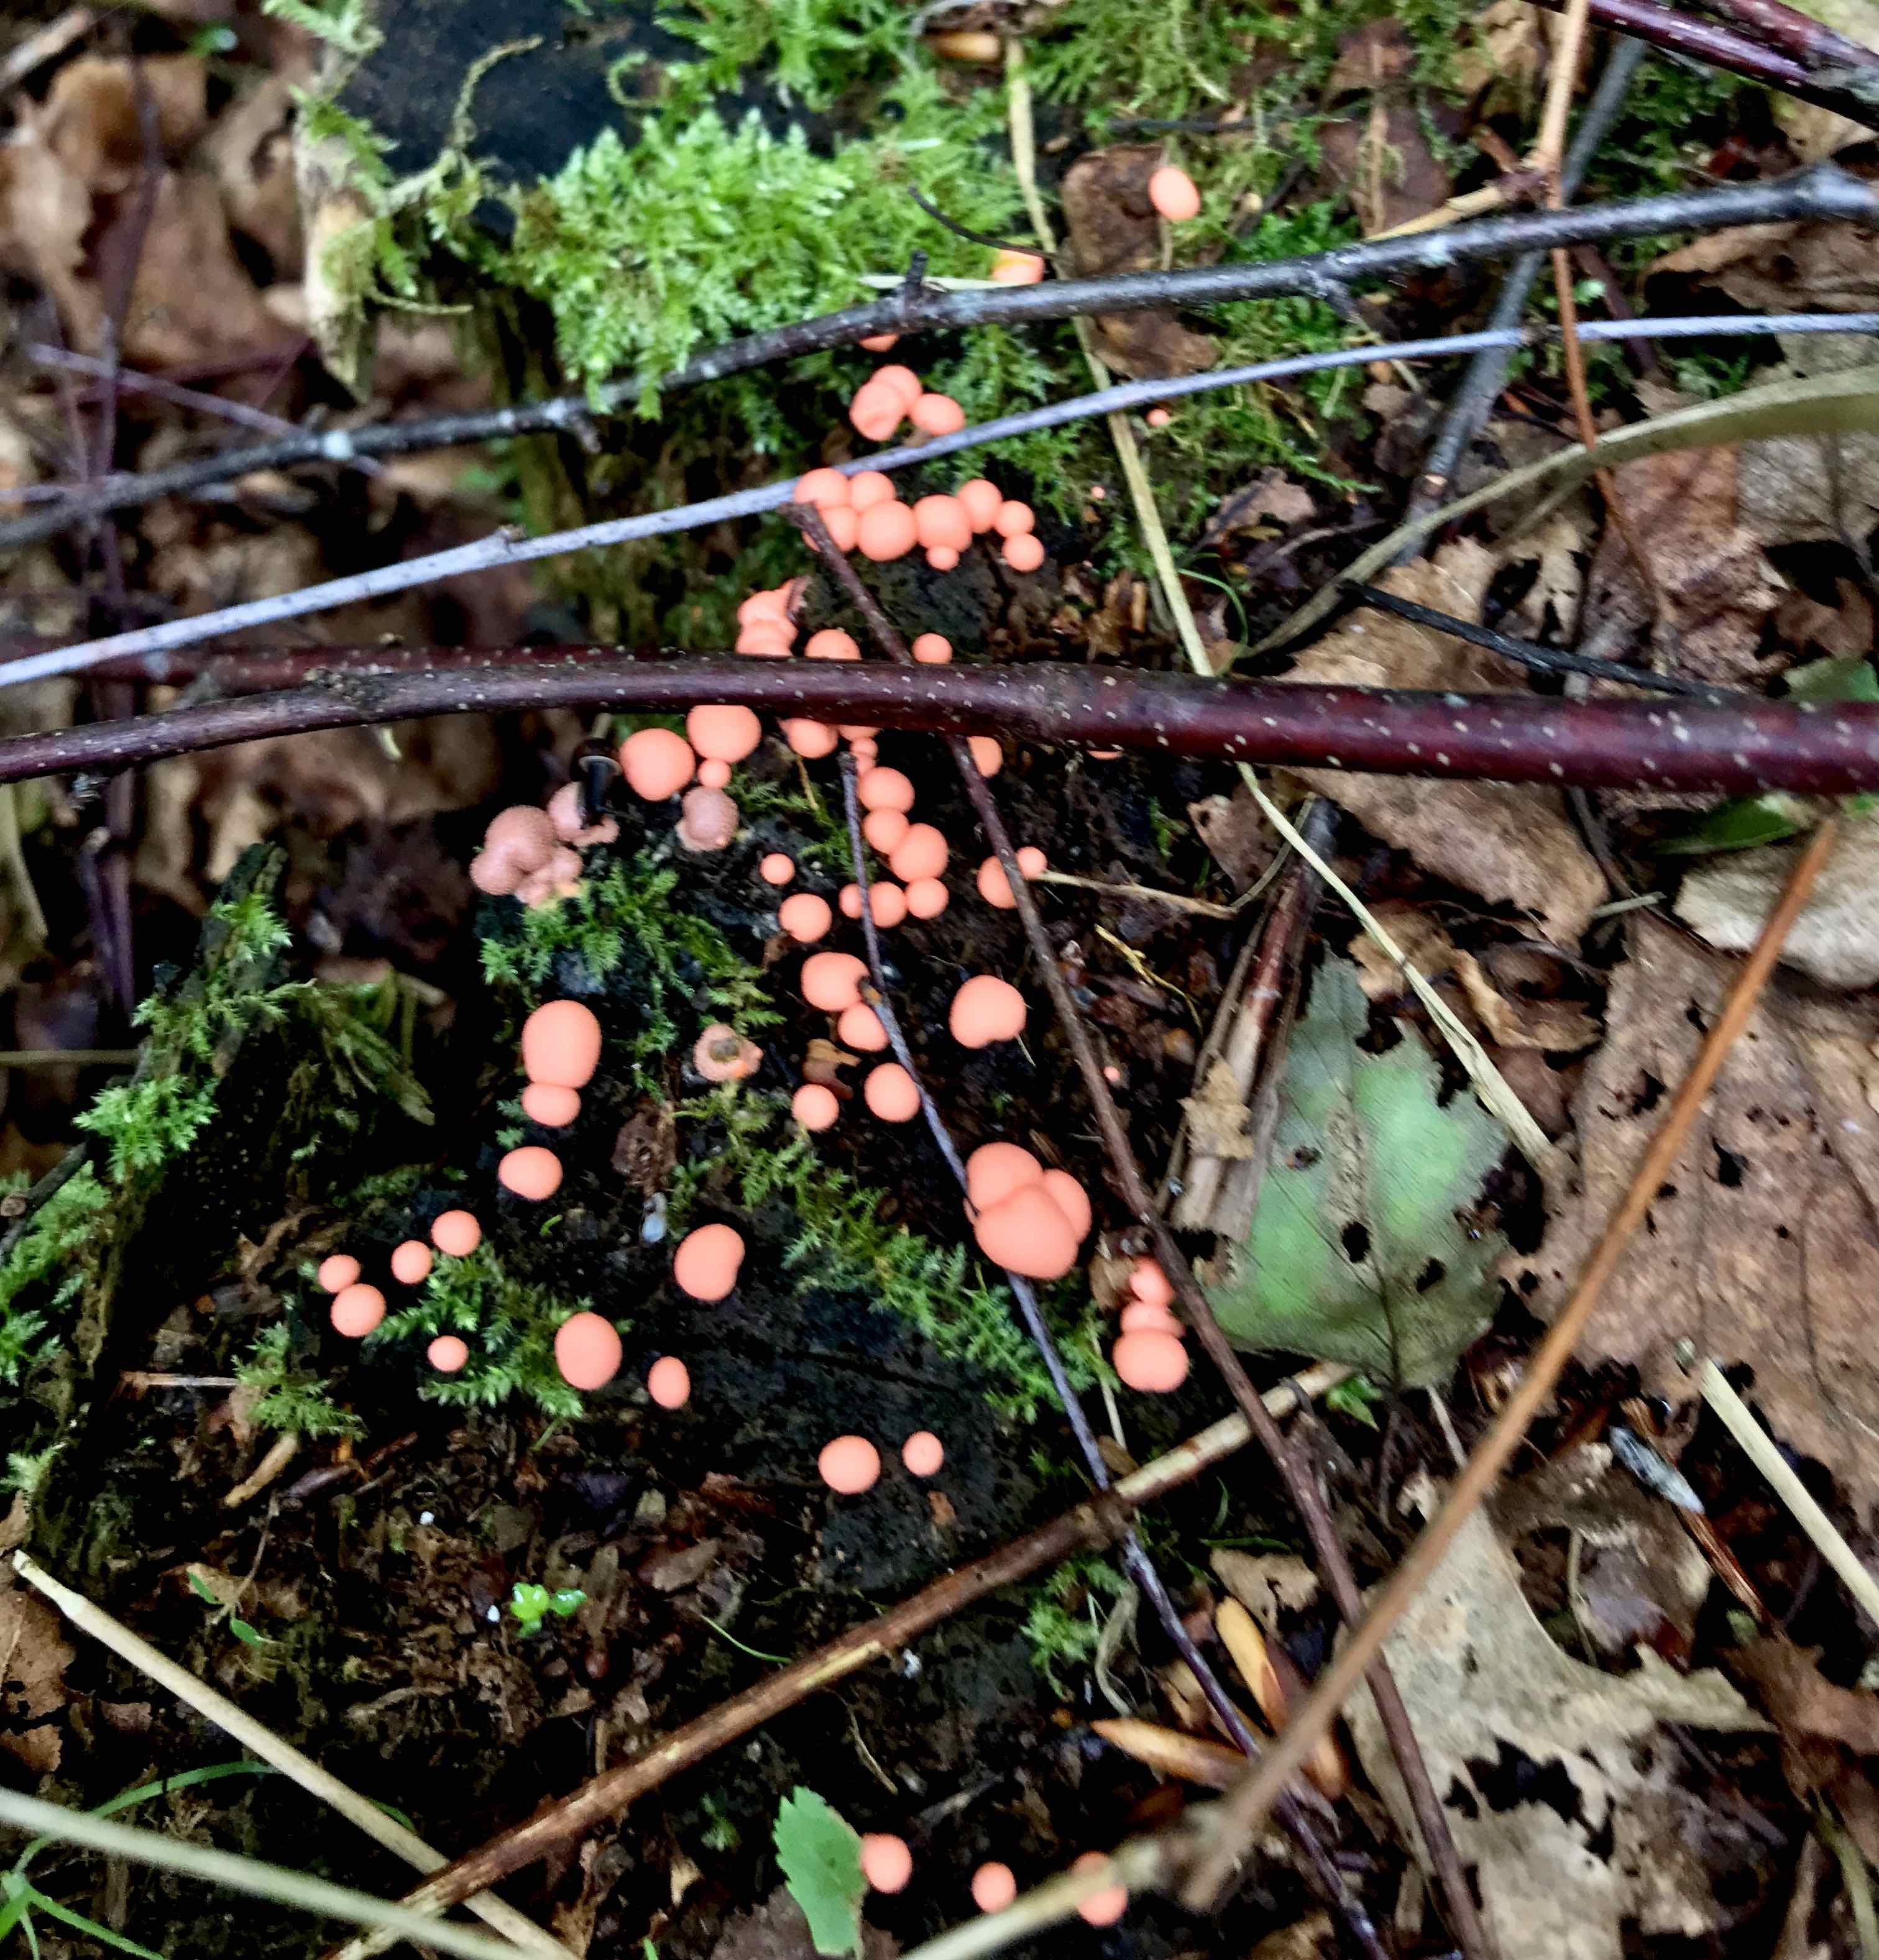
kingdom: Protozoa
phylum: Mycetozoa
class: Myxomycetes
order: Cribrariales
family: Tubiferaceae
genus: Lycogala
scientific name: Lycogala epidendrum
